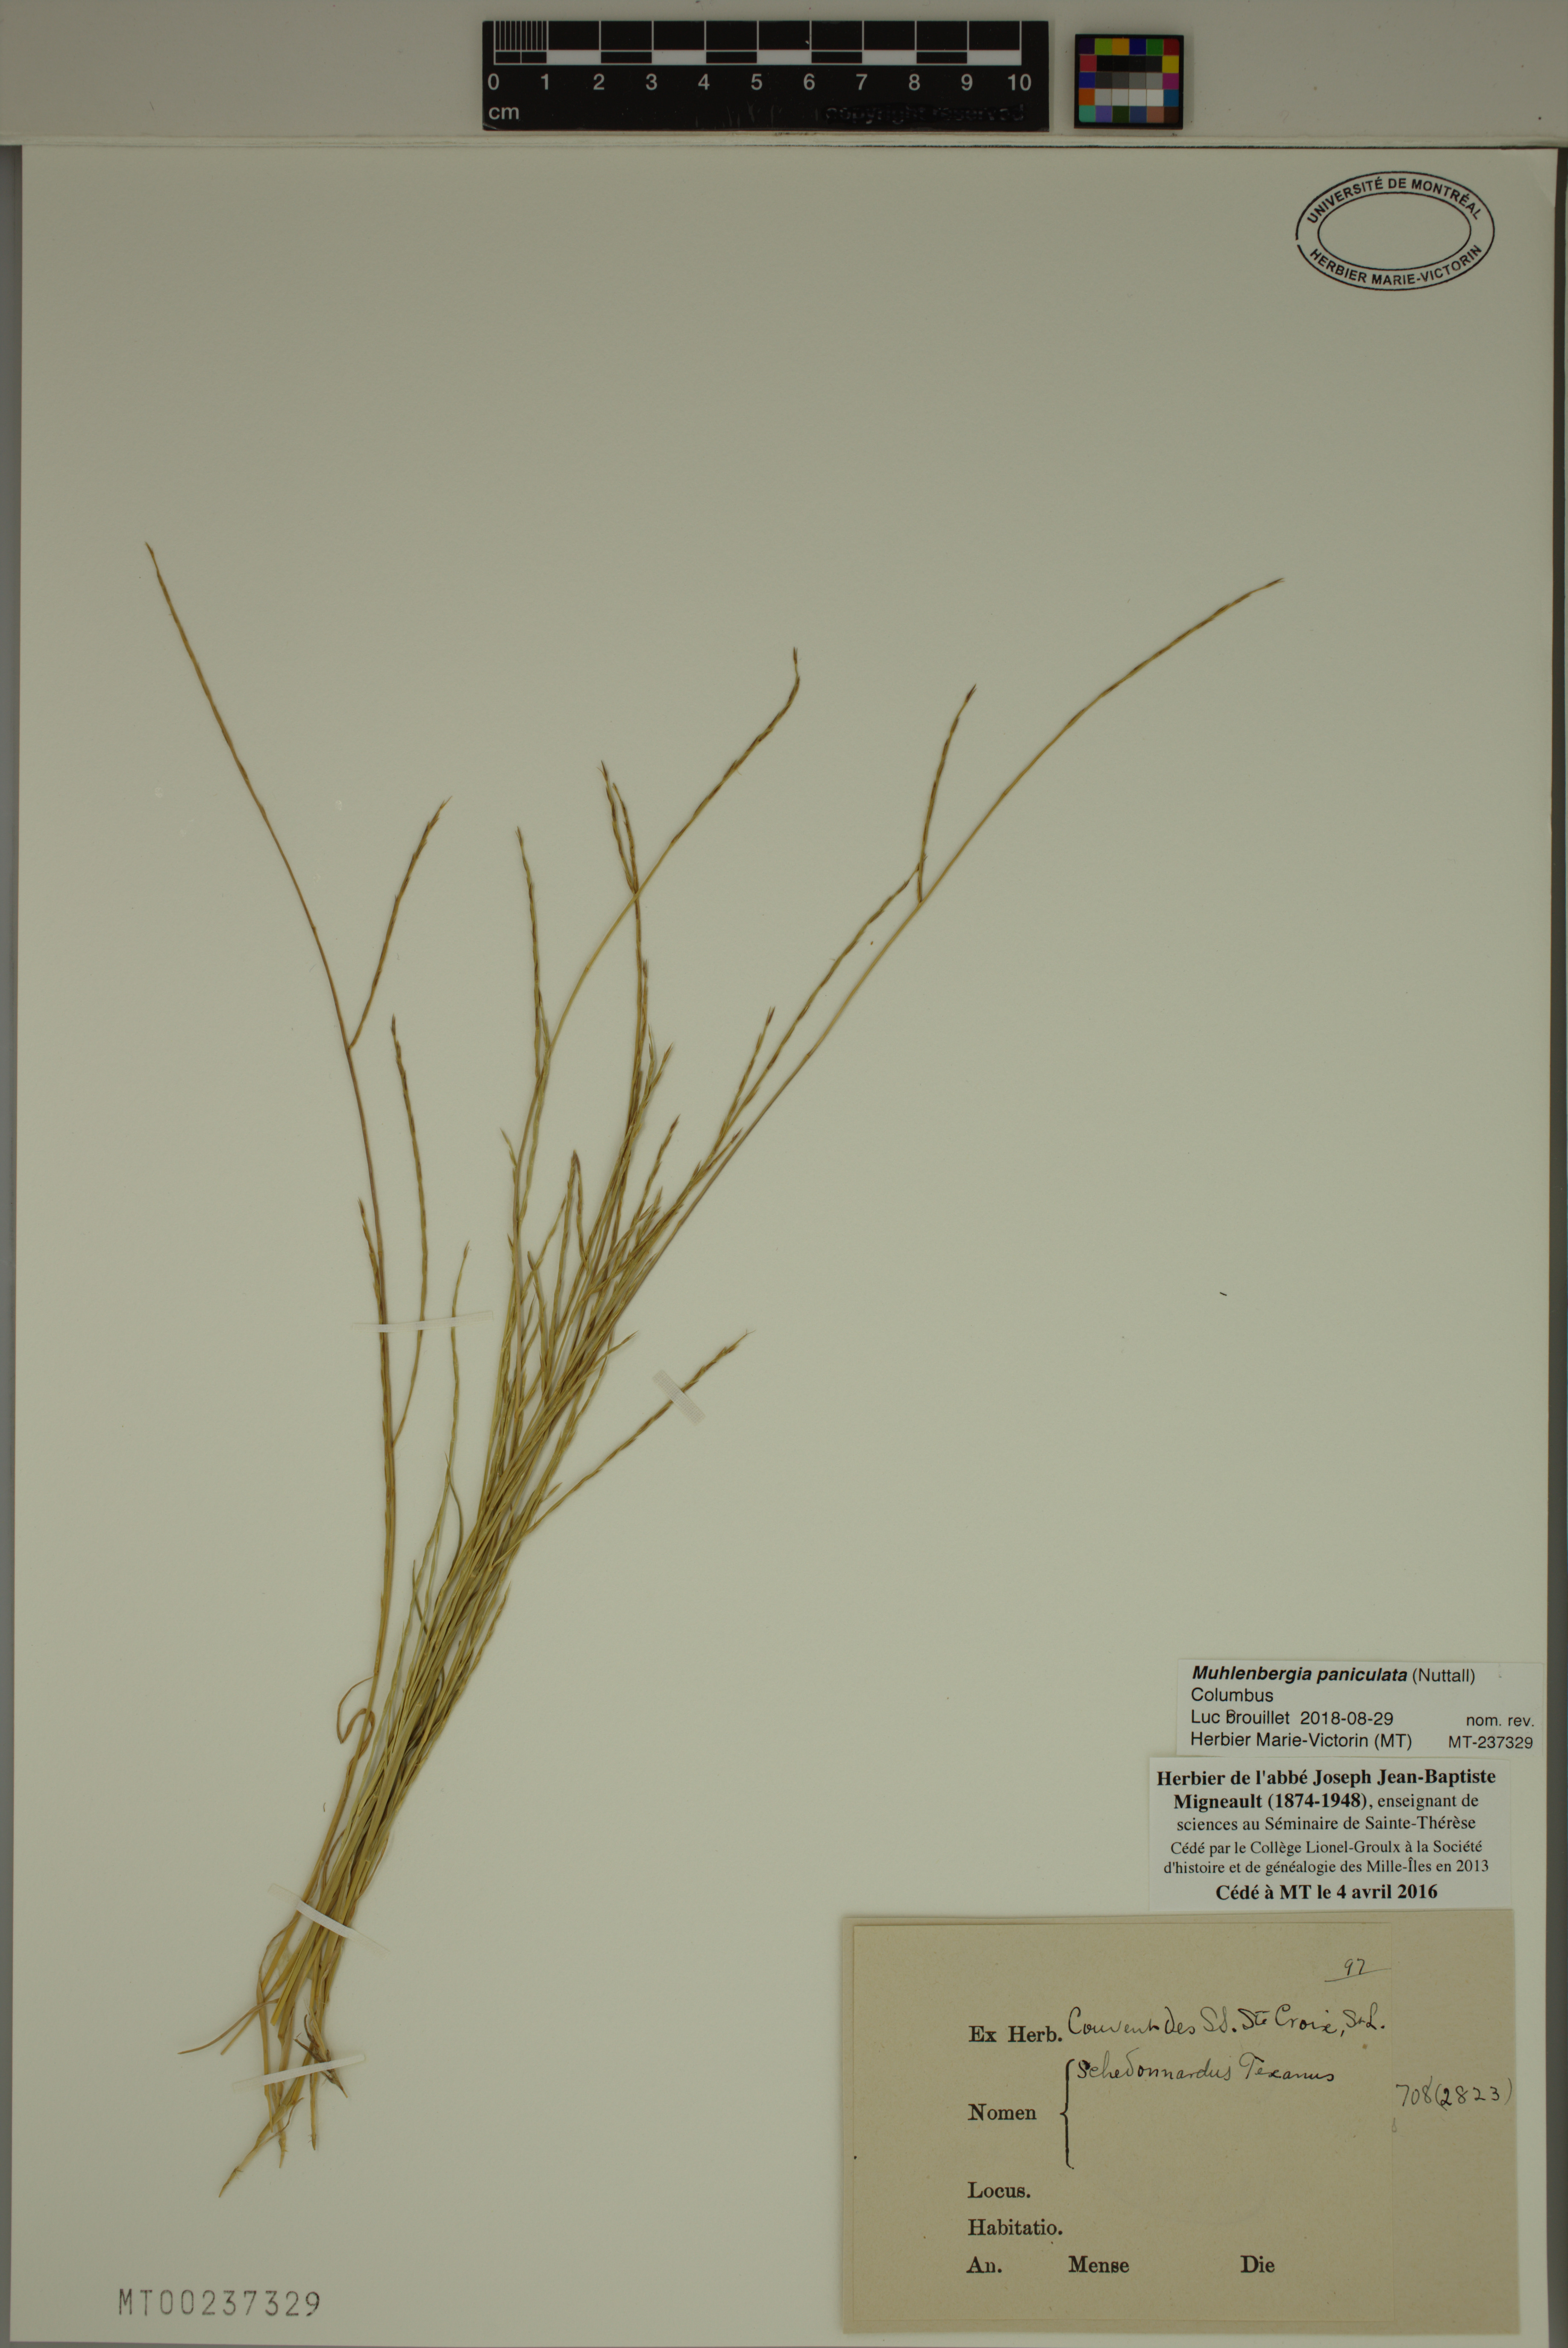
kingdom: Plantae
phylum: Tracheophyta
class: Liliopsida
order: Poales
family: Poaceae
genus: Muhlenbergia
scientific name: Muhlenbergia paniculata
